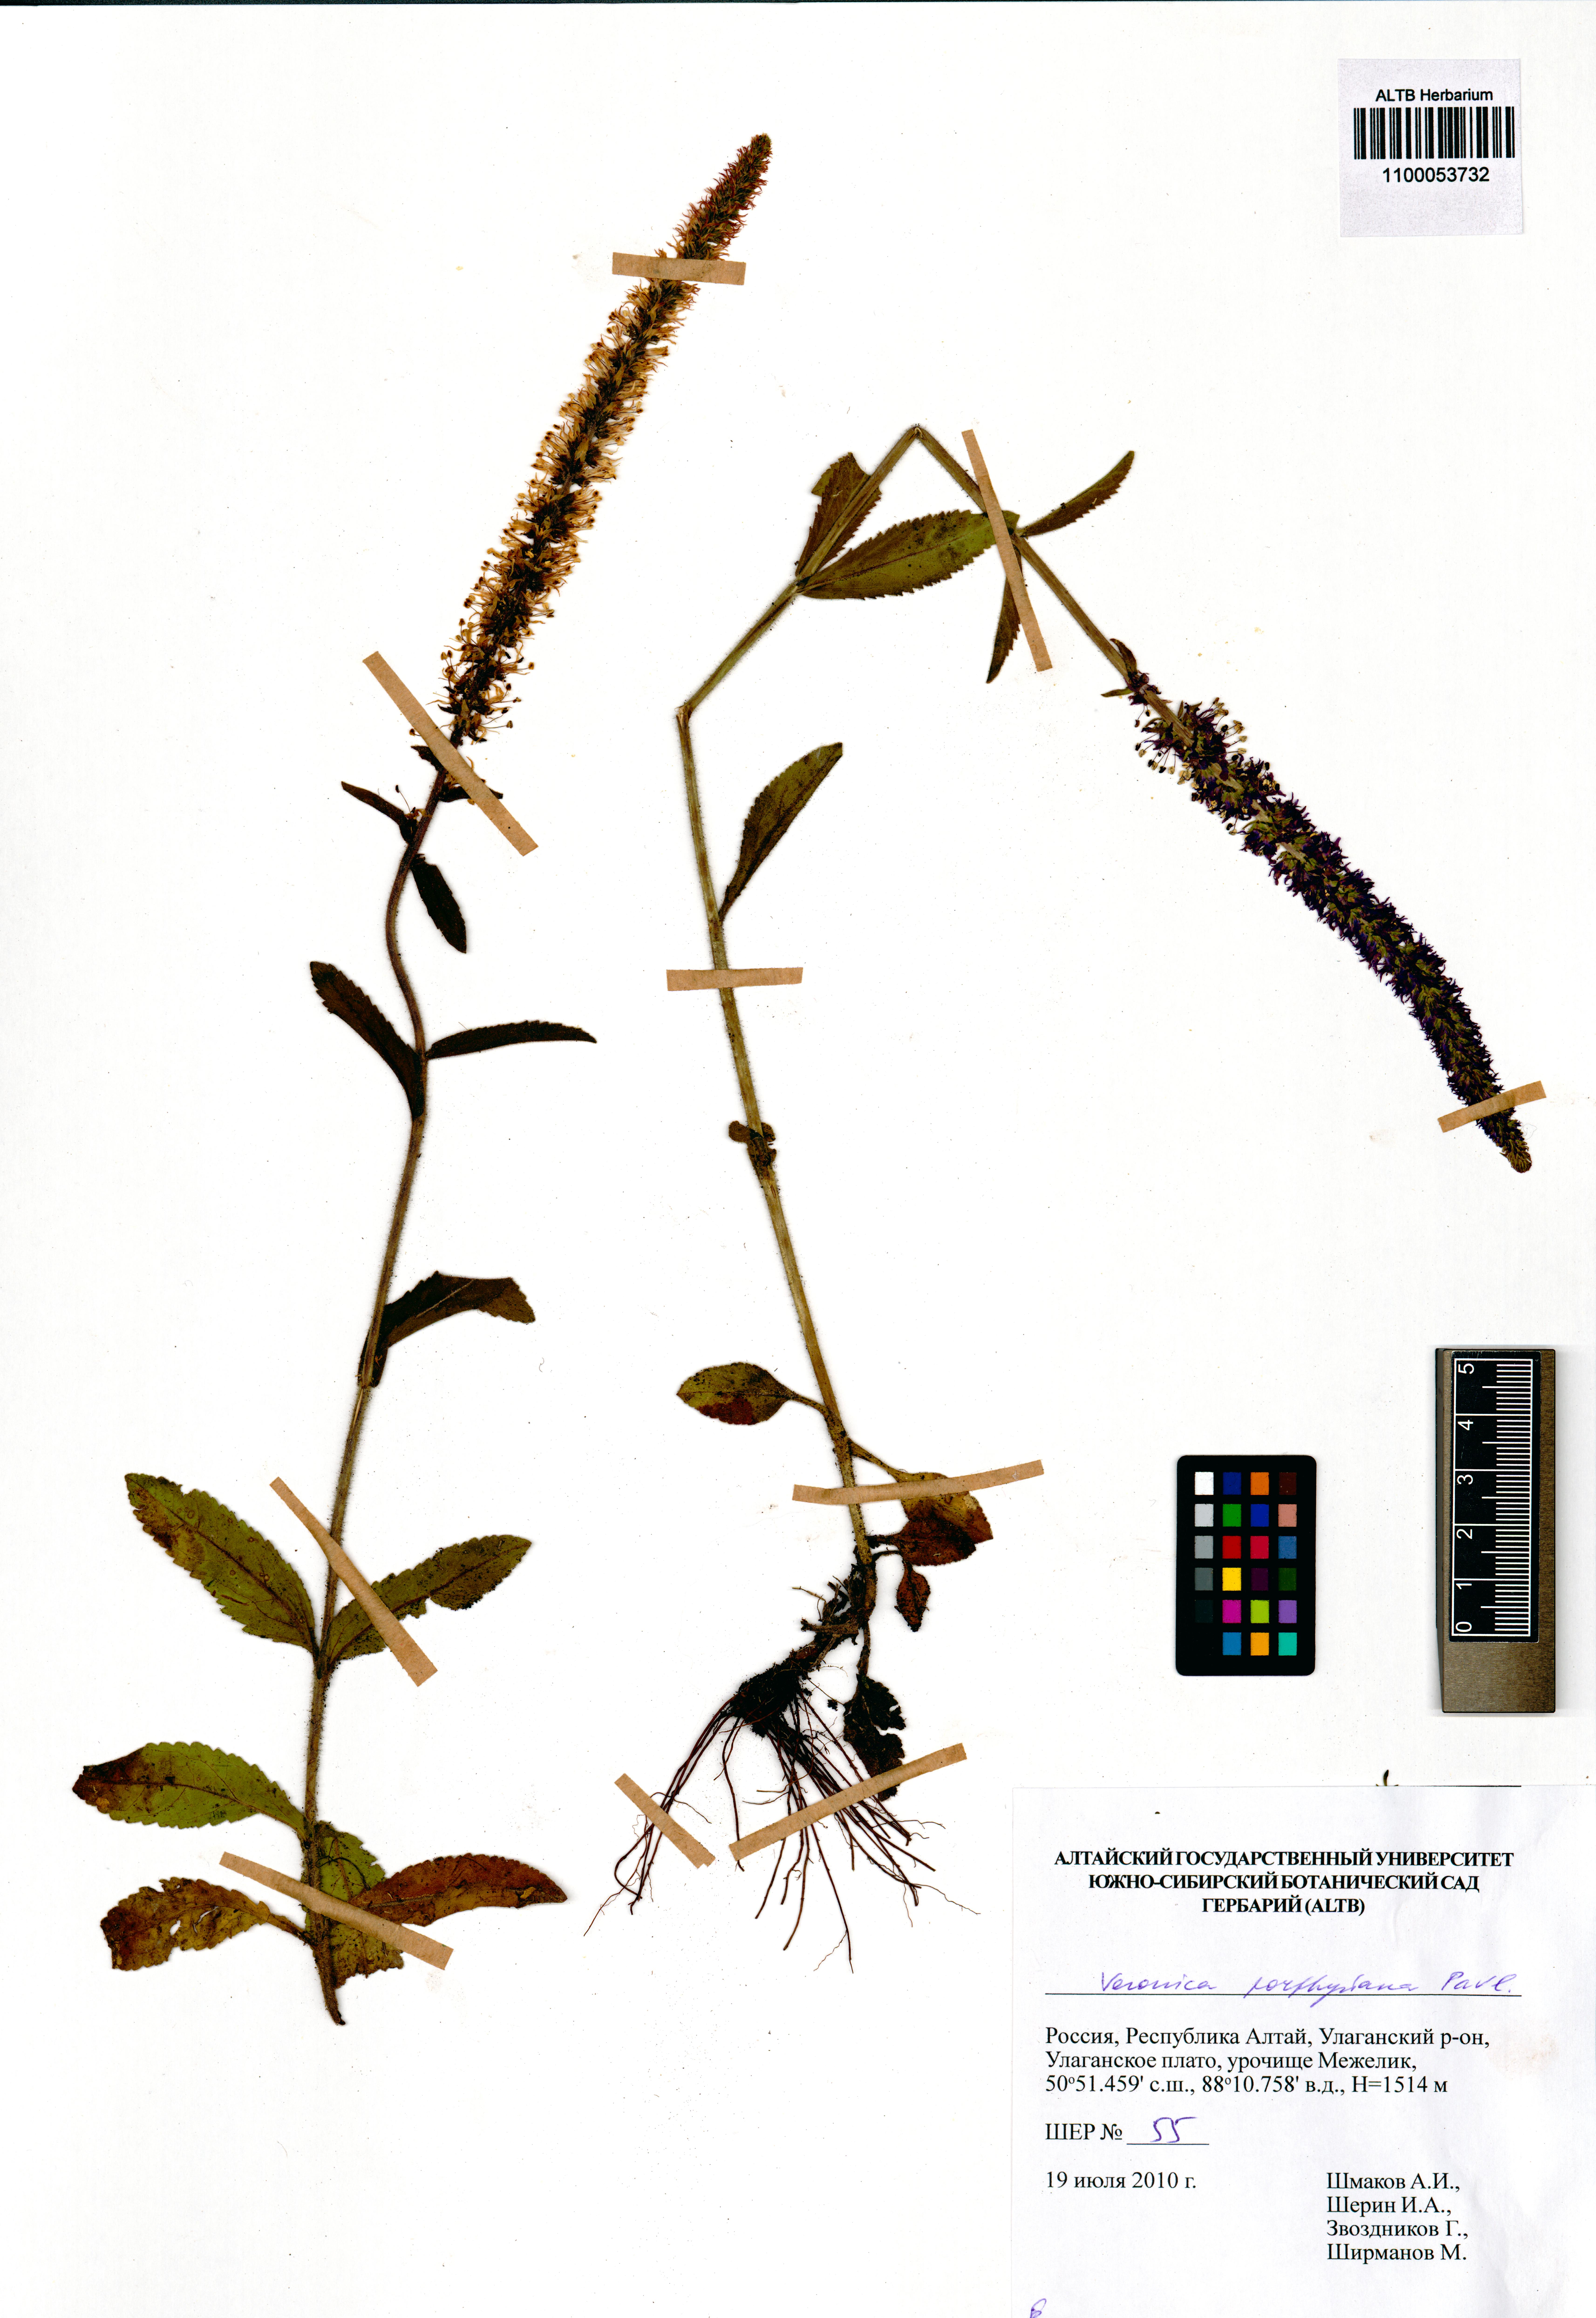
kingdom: Plantae
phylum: Tracheophyta
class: Magnoliopsida
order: Lamiales
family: Plantaginaceae
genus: Veronica
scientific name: Veronica porphyriana
